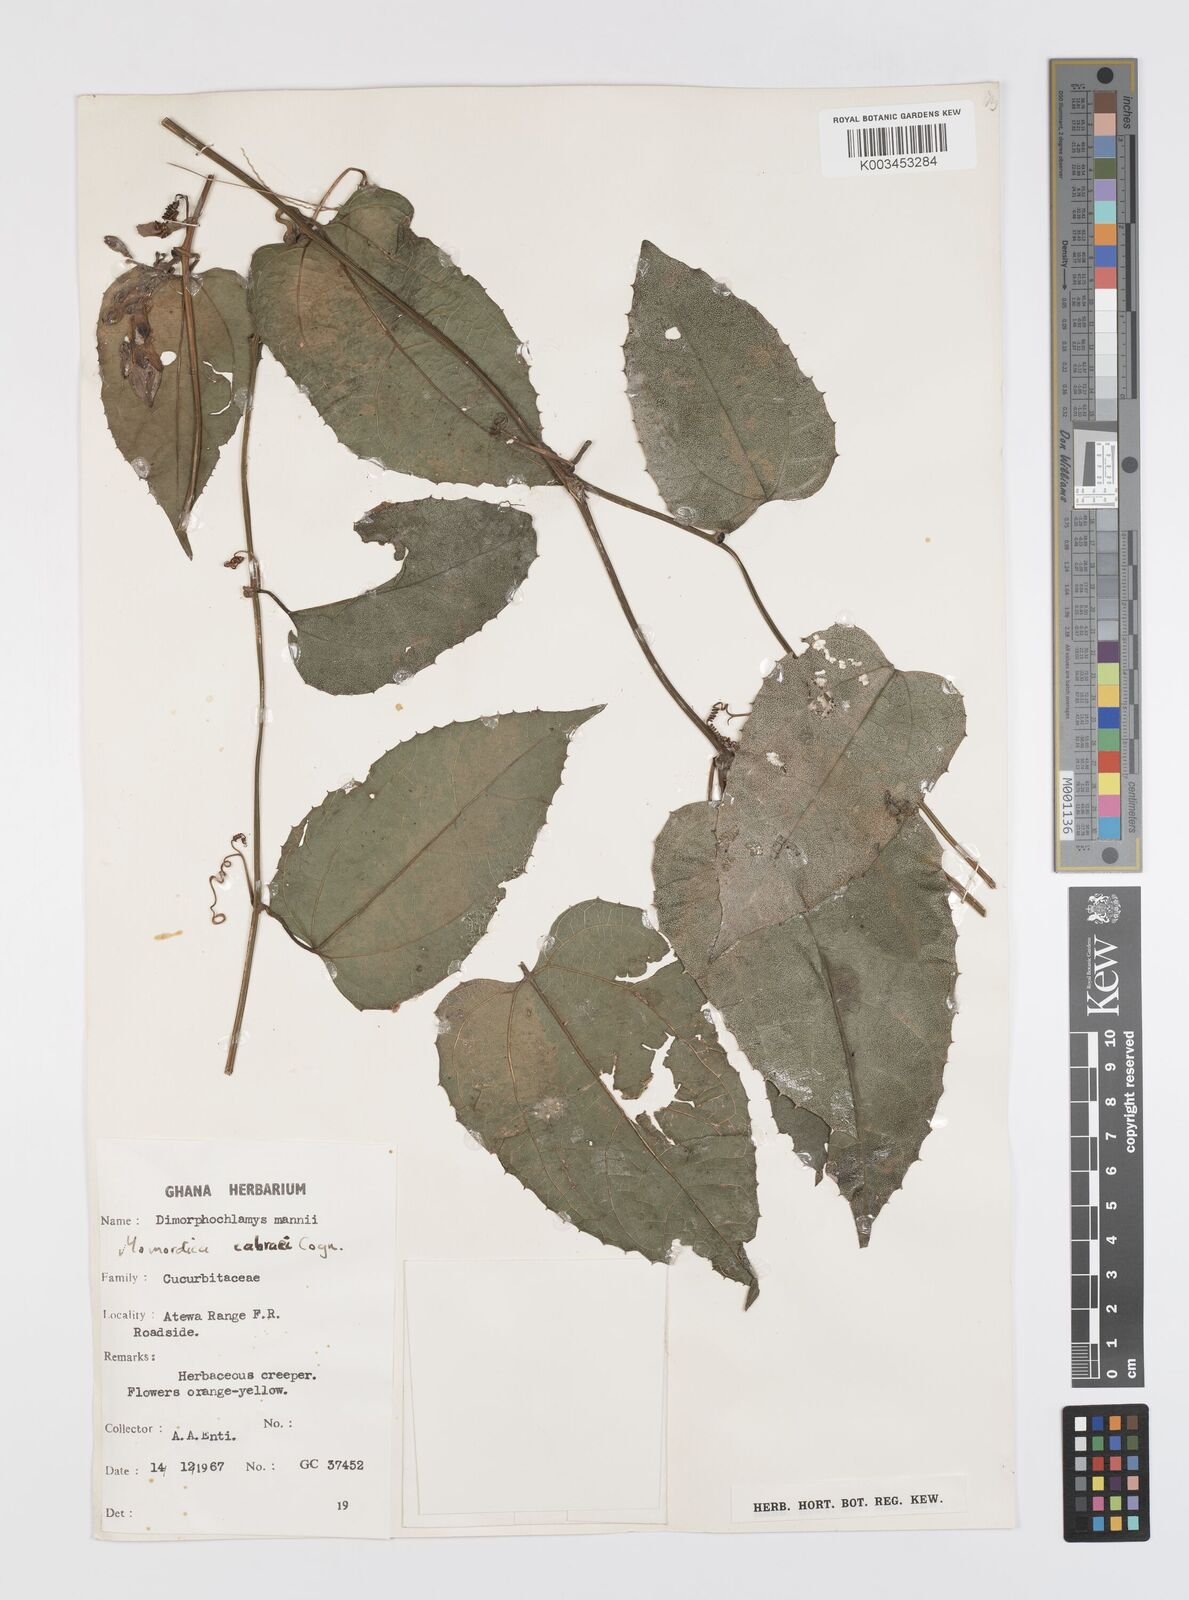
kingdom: Plantae
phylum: Tracheophyta
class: Magnoliopsida
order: Cucurbitales
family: Cucurbitaceae
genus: Momordica
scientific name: Momordica cabrae
